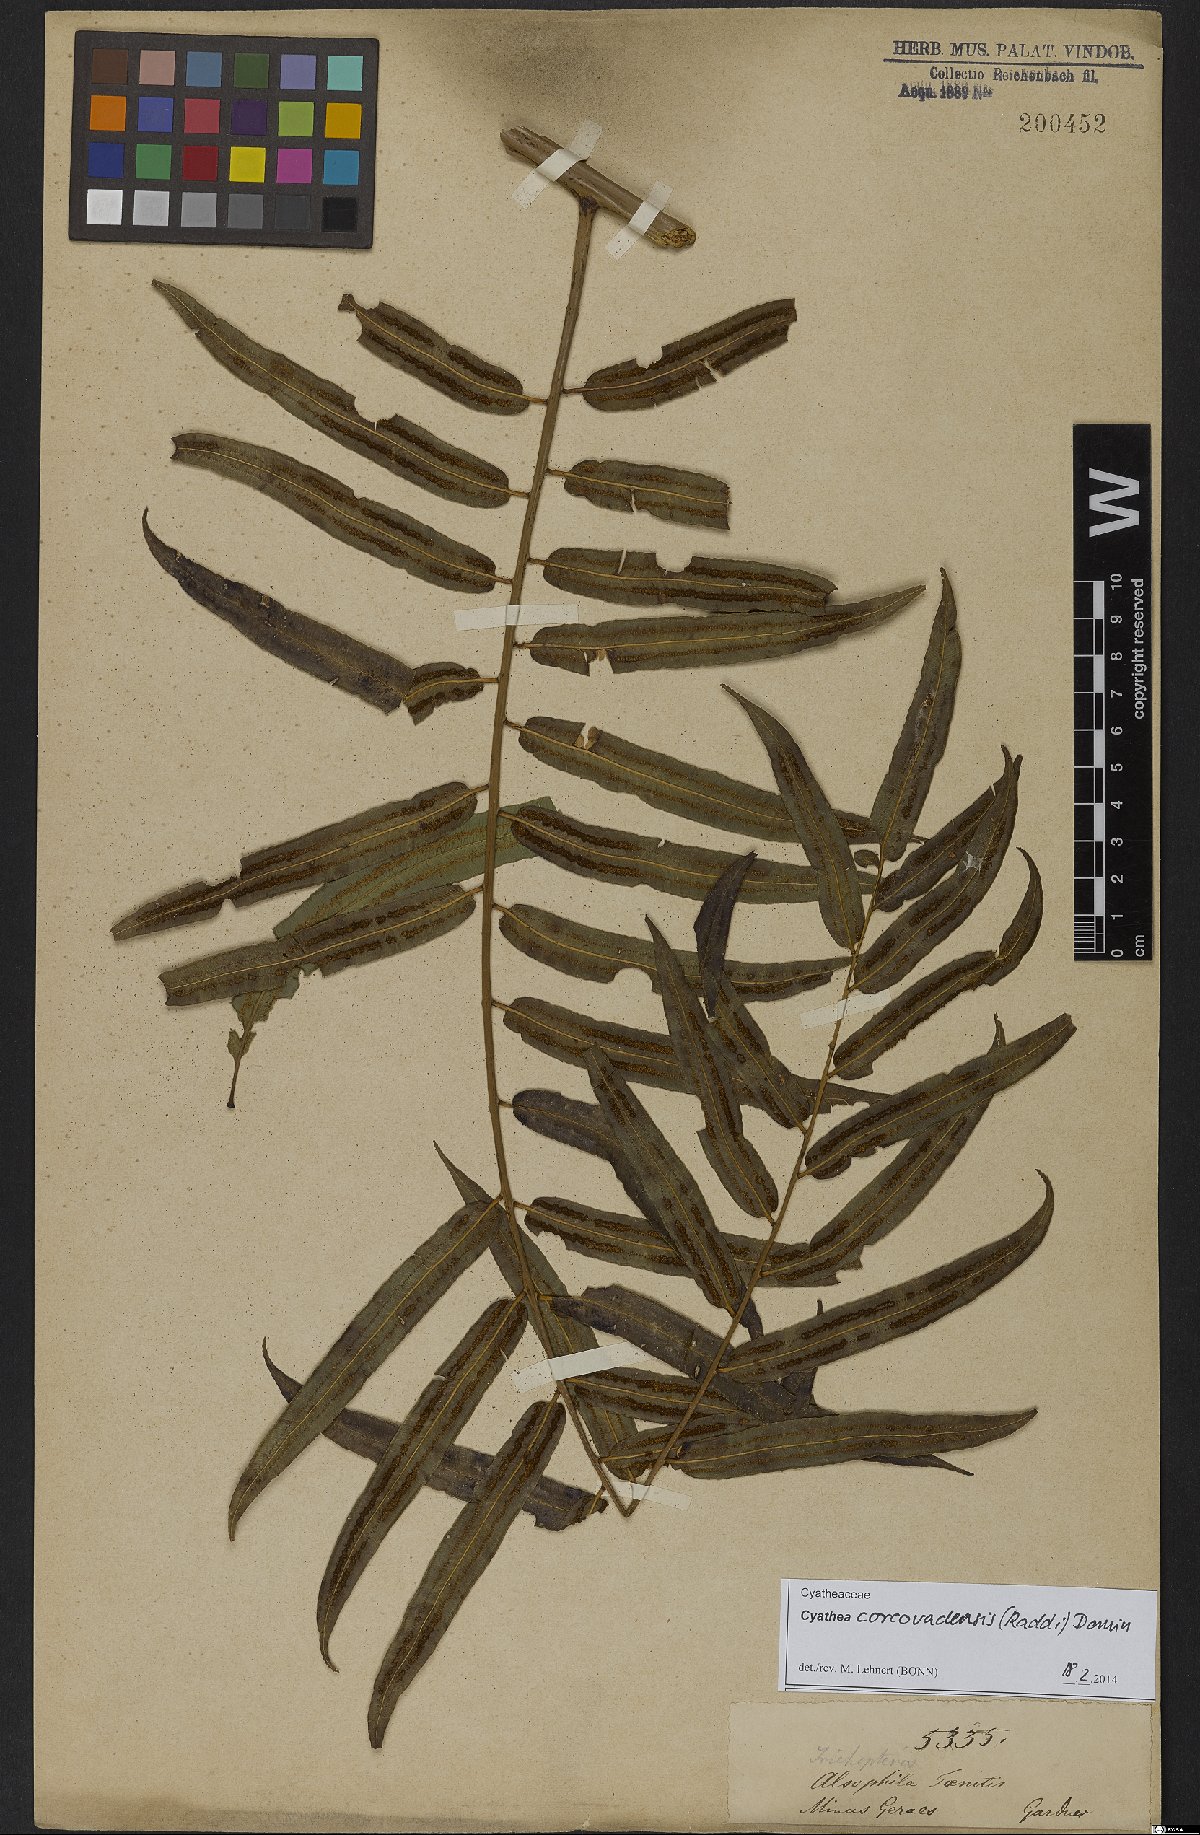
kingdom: Plantae
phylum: Tracheophyta
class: Polypodiopsida
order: Cyatheales
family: Cyatheaceae
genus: Cyathea
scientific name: Cyathea corcovadensis
